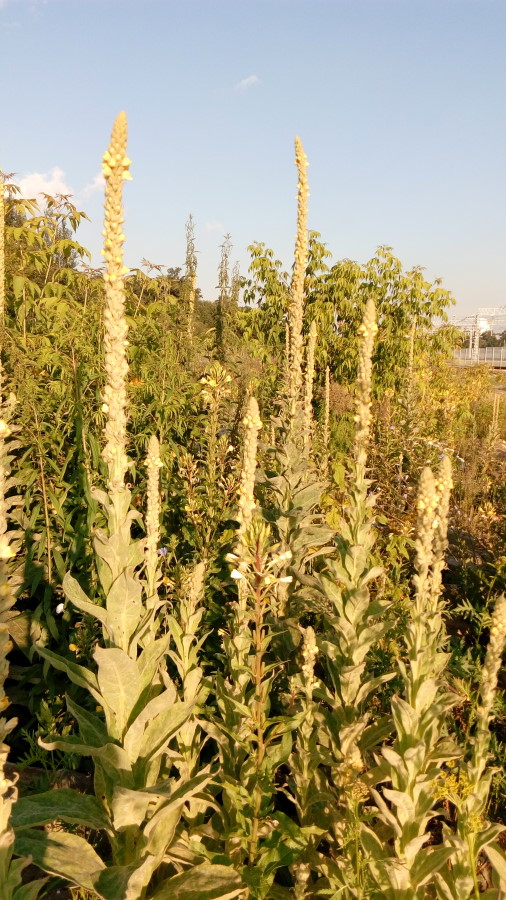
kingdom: Plantae
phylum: Tracheophyta
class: Magnoliopsida
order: Lamiales
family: Scrophulariaceae
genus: Verbascum
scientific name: Verbascum thapsus
